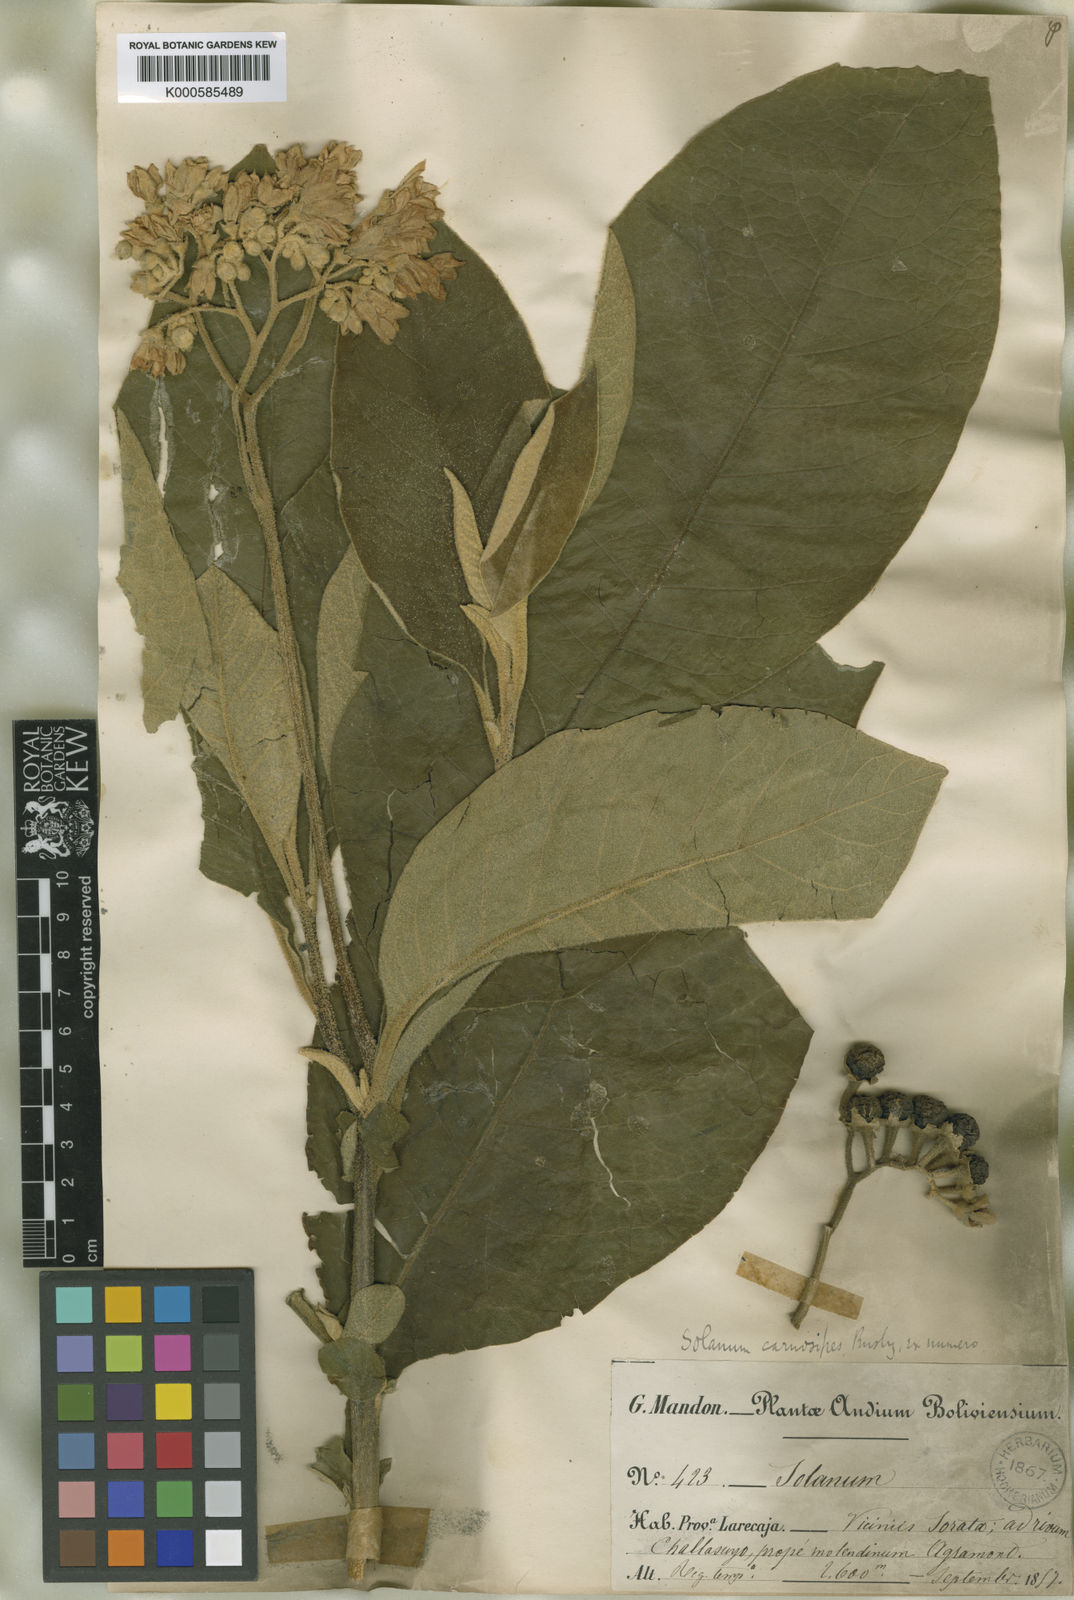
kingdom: Plantae
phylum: Tracheophyta
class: Magnoliopsida
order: Solanales
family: Solanaceae
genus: Solanum
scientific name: Solanum riparium
